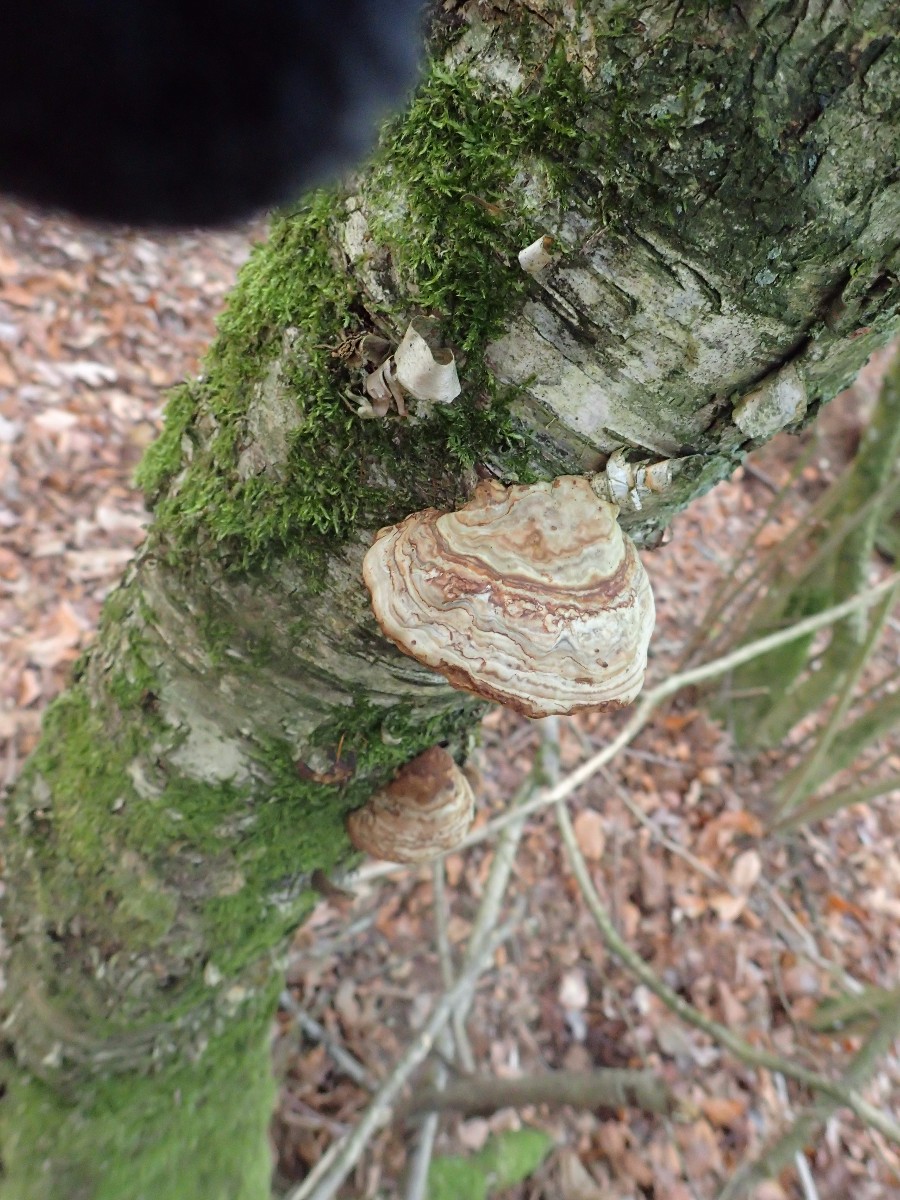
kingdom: Fungi
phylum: Basidiomycota
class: Agaricomycetes
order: Polyporales
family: Polyporaceae
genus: Fomes
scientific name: Fomes fomentarius
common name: tøndersvamp
